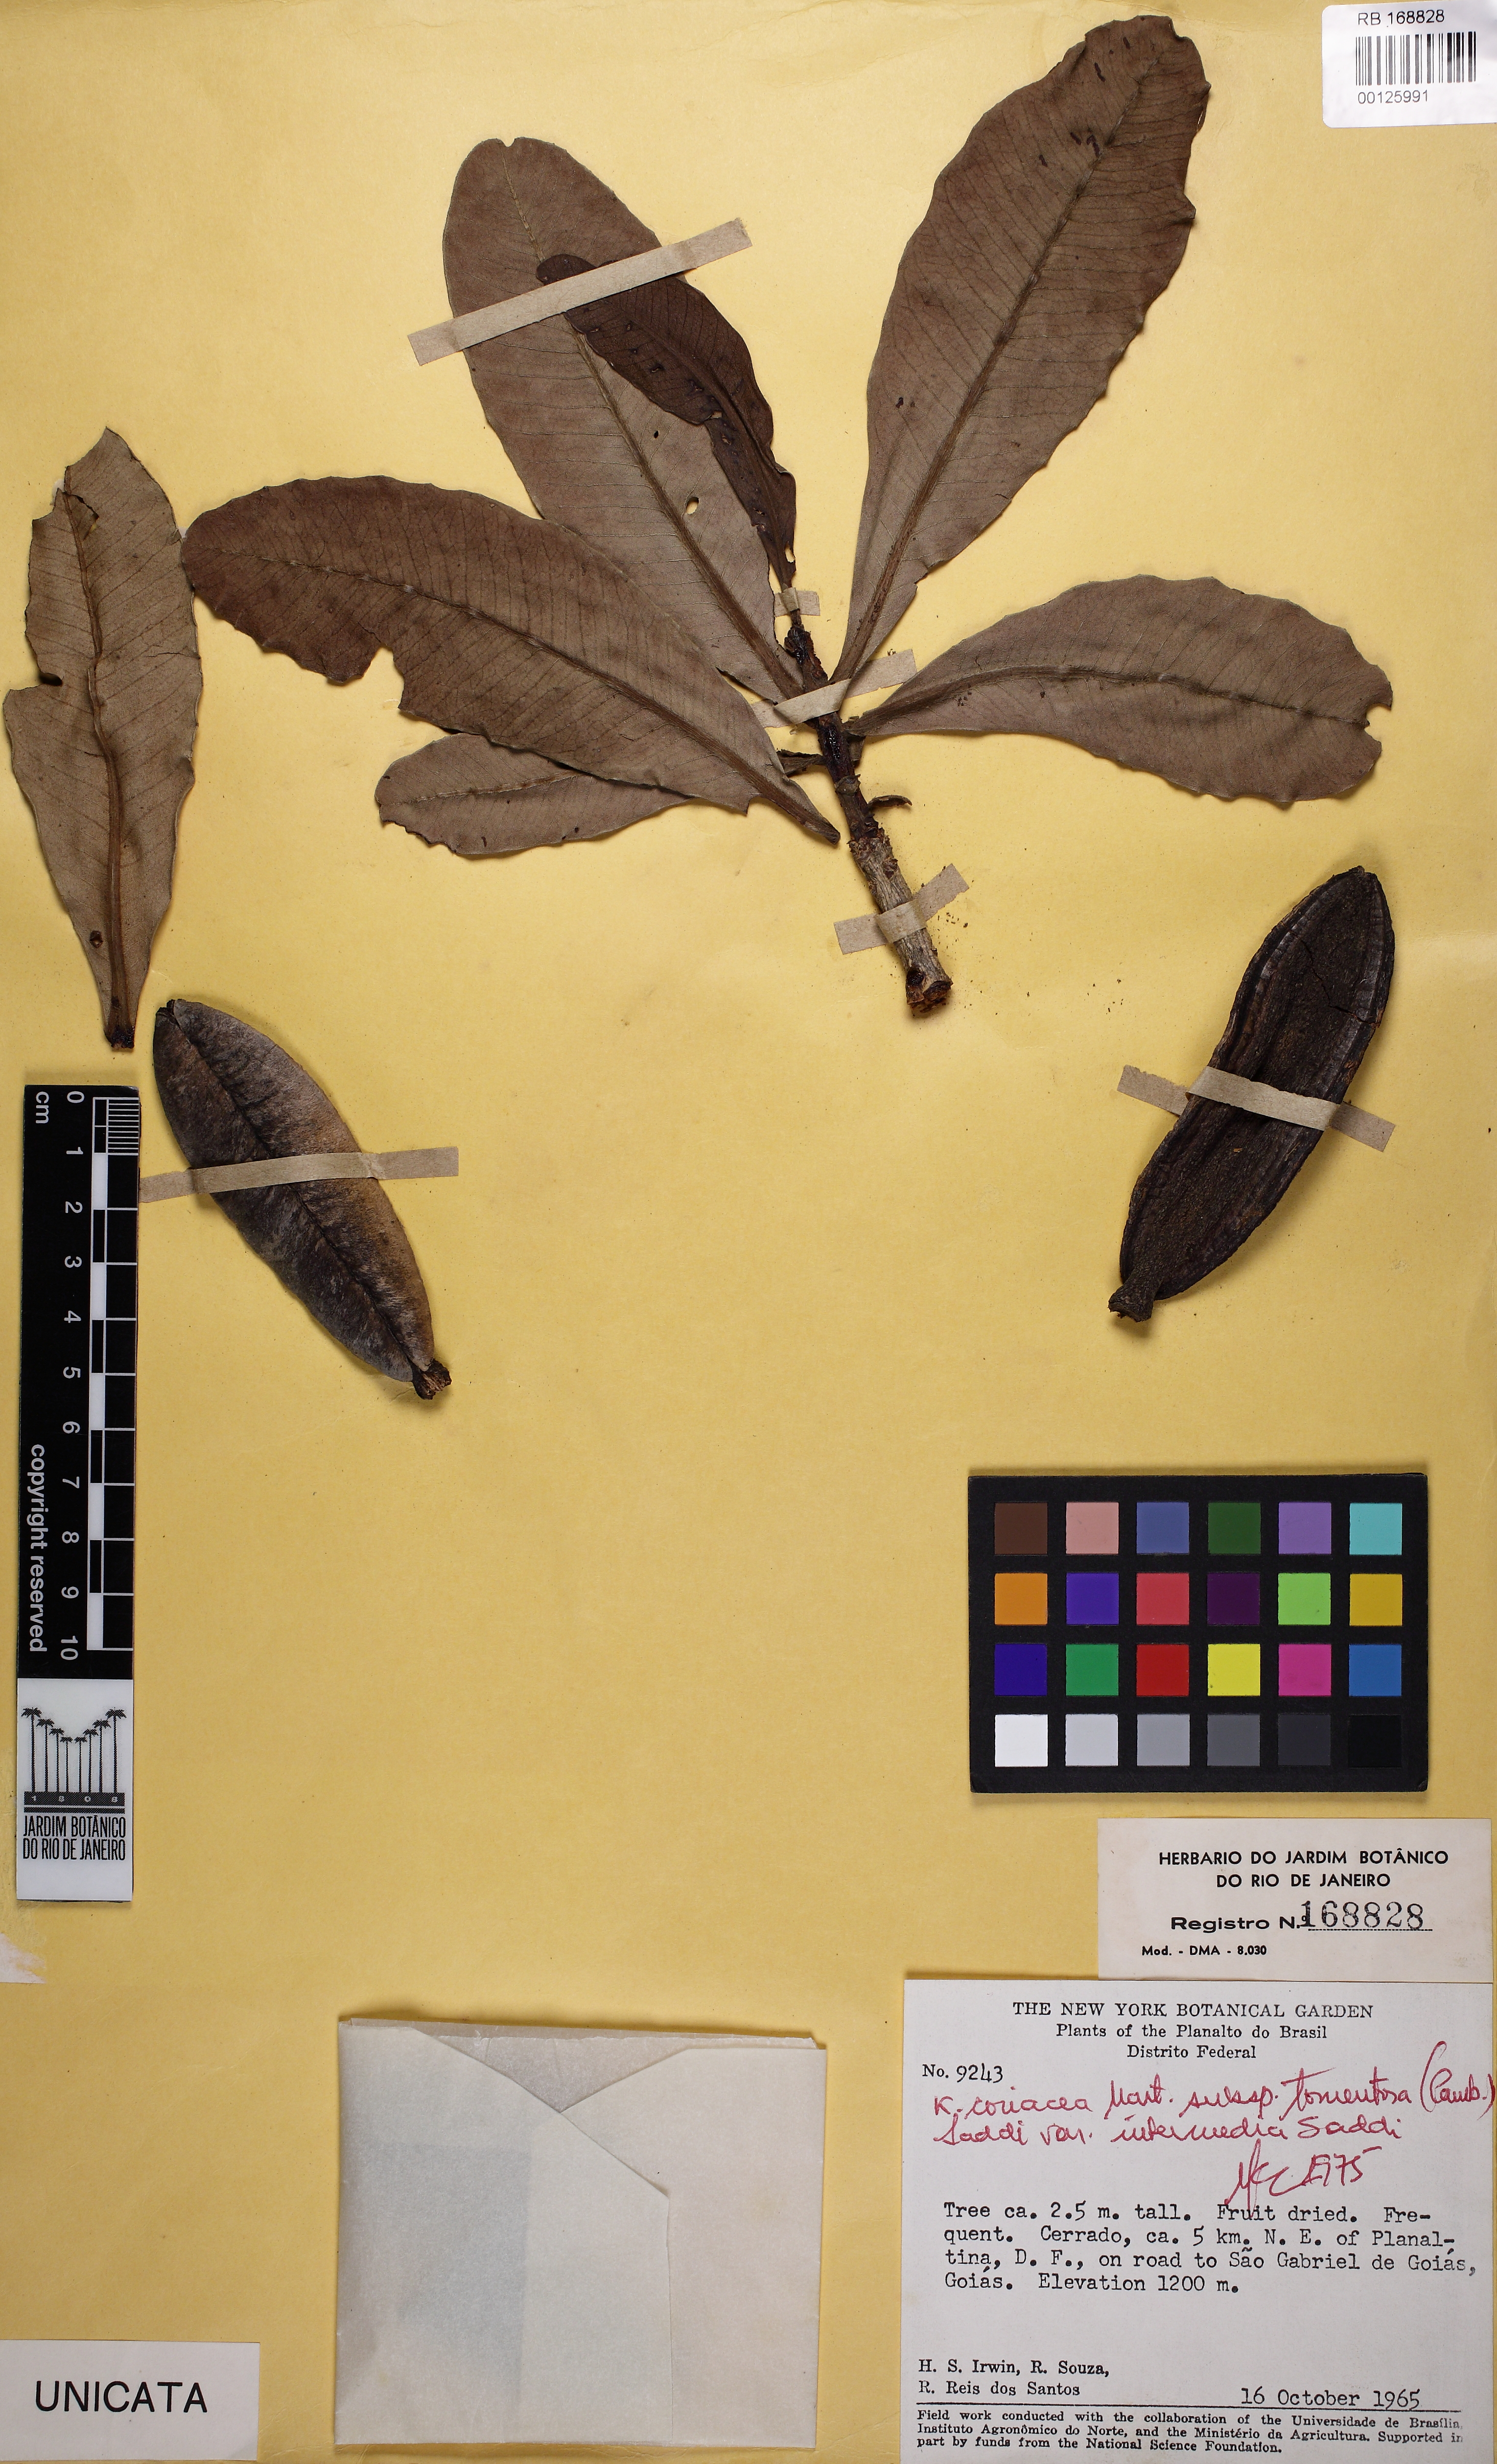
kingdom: Plantae
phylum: Tracheophyta
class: Magnoliopsida
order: Malpighiales
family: Calophyllaceae
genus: Kielmeyera
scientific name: Kielmeyera coriacea
